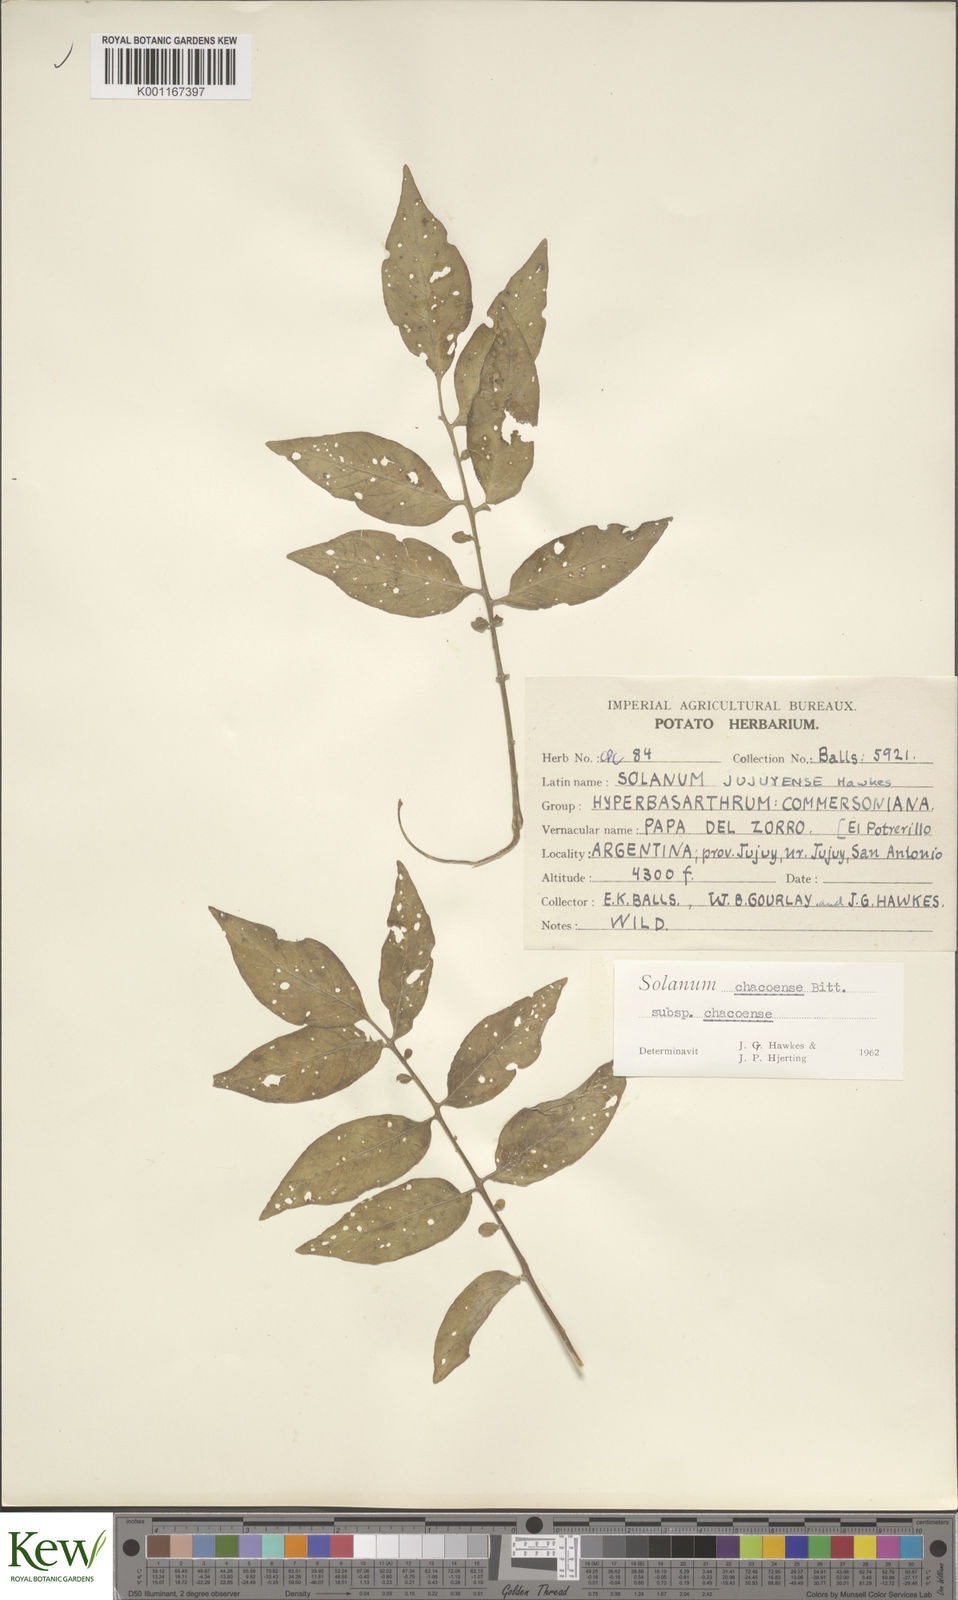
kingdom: Plantae
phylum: Tracheophyta
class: Magnoliopsida
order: Solanales
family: Solanaceae
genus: Solanum
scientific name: Solanum chacoense
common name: Chaco potato
